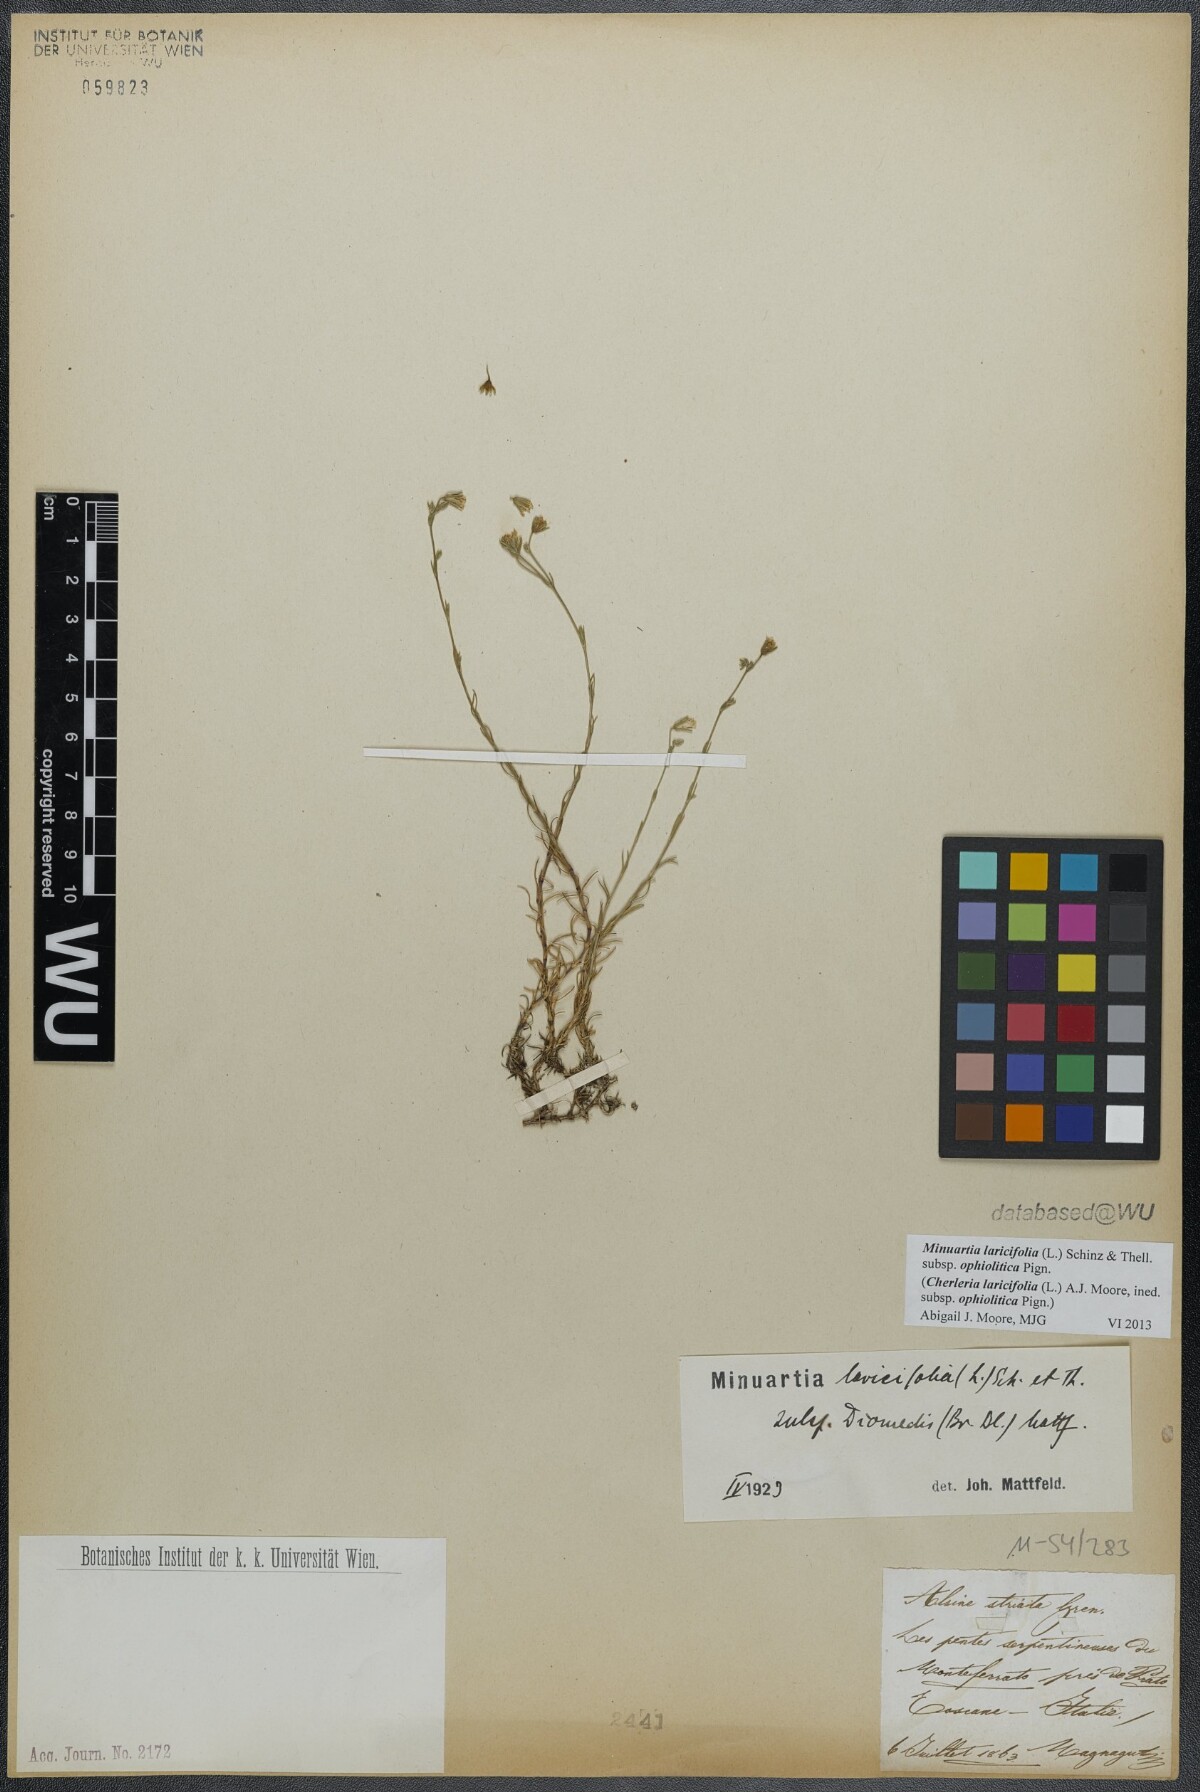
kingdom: Plantae
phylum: Tracheophyta
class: Magnoliopsida
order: Caryophyllales
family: Caryophyllaceae
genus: Cherleria
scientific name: Cherleria laricifolia
